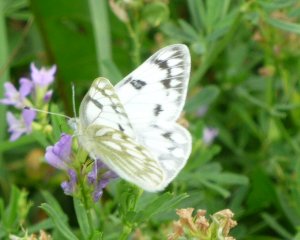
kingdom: Animalia
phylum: Arthropoda
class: Insecta
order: Lepidoptera
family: Pieridae
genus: Pontia
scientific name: Pontia occidentalis
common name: Western White
